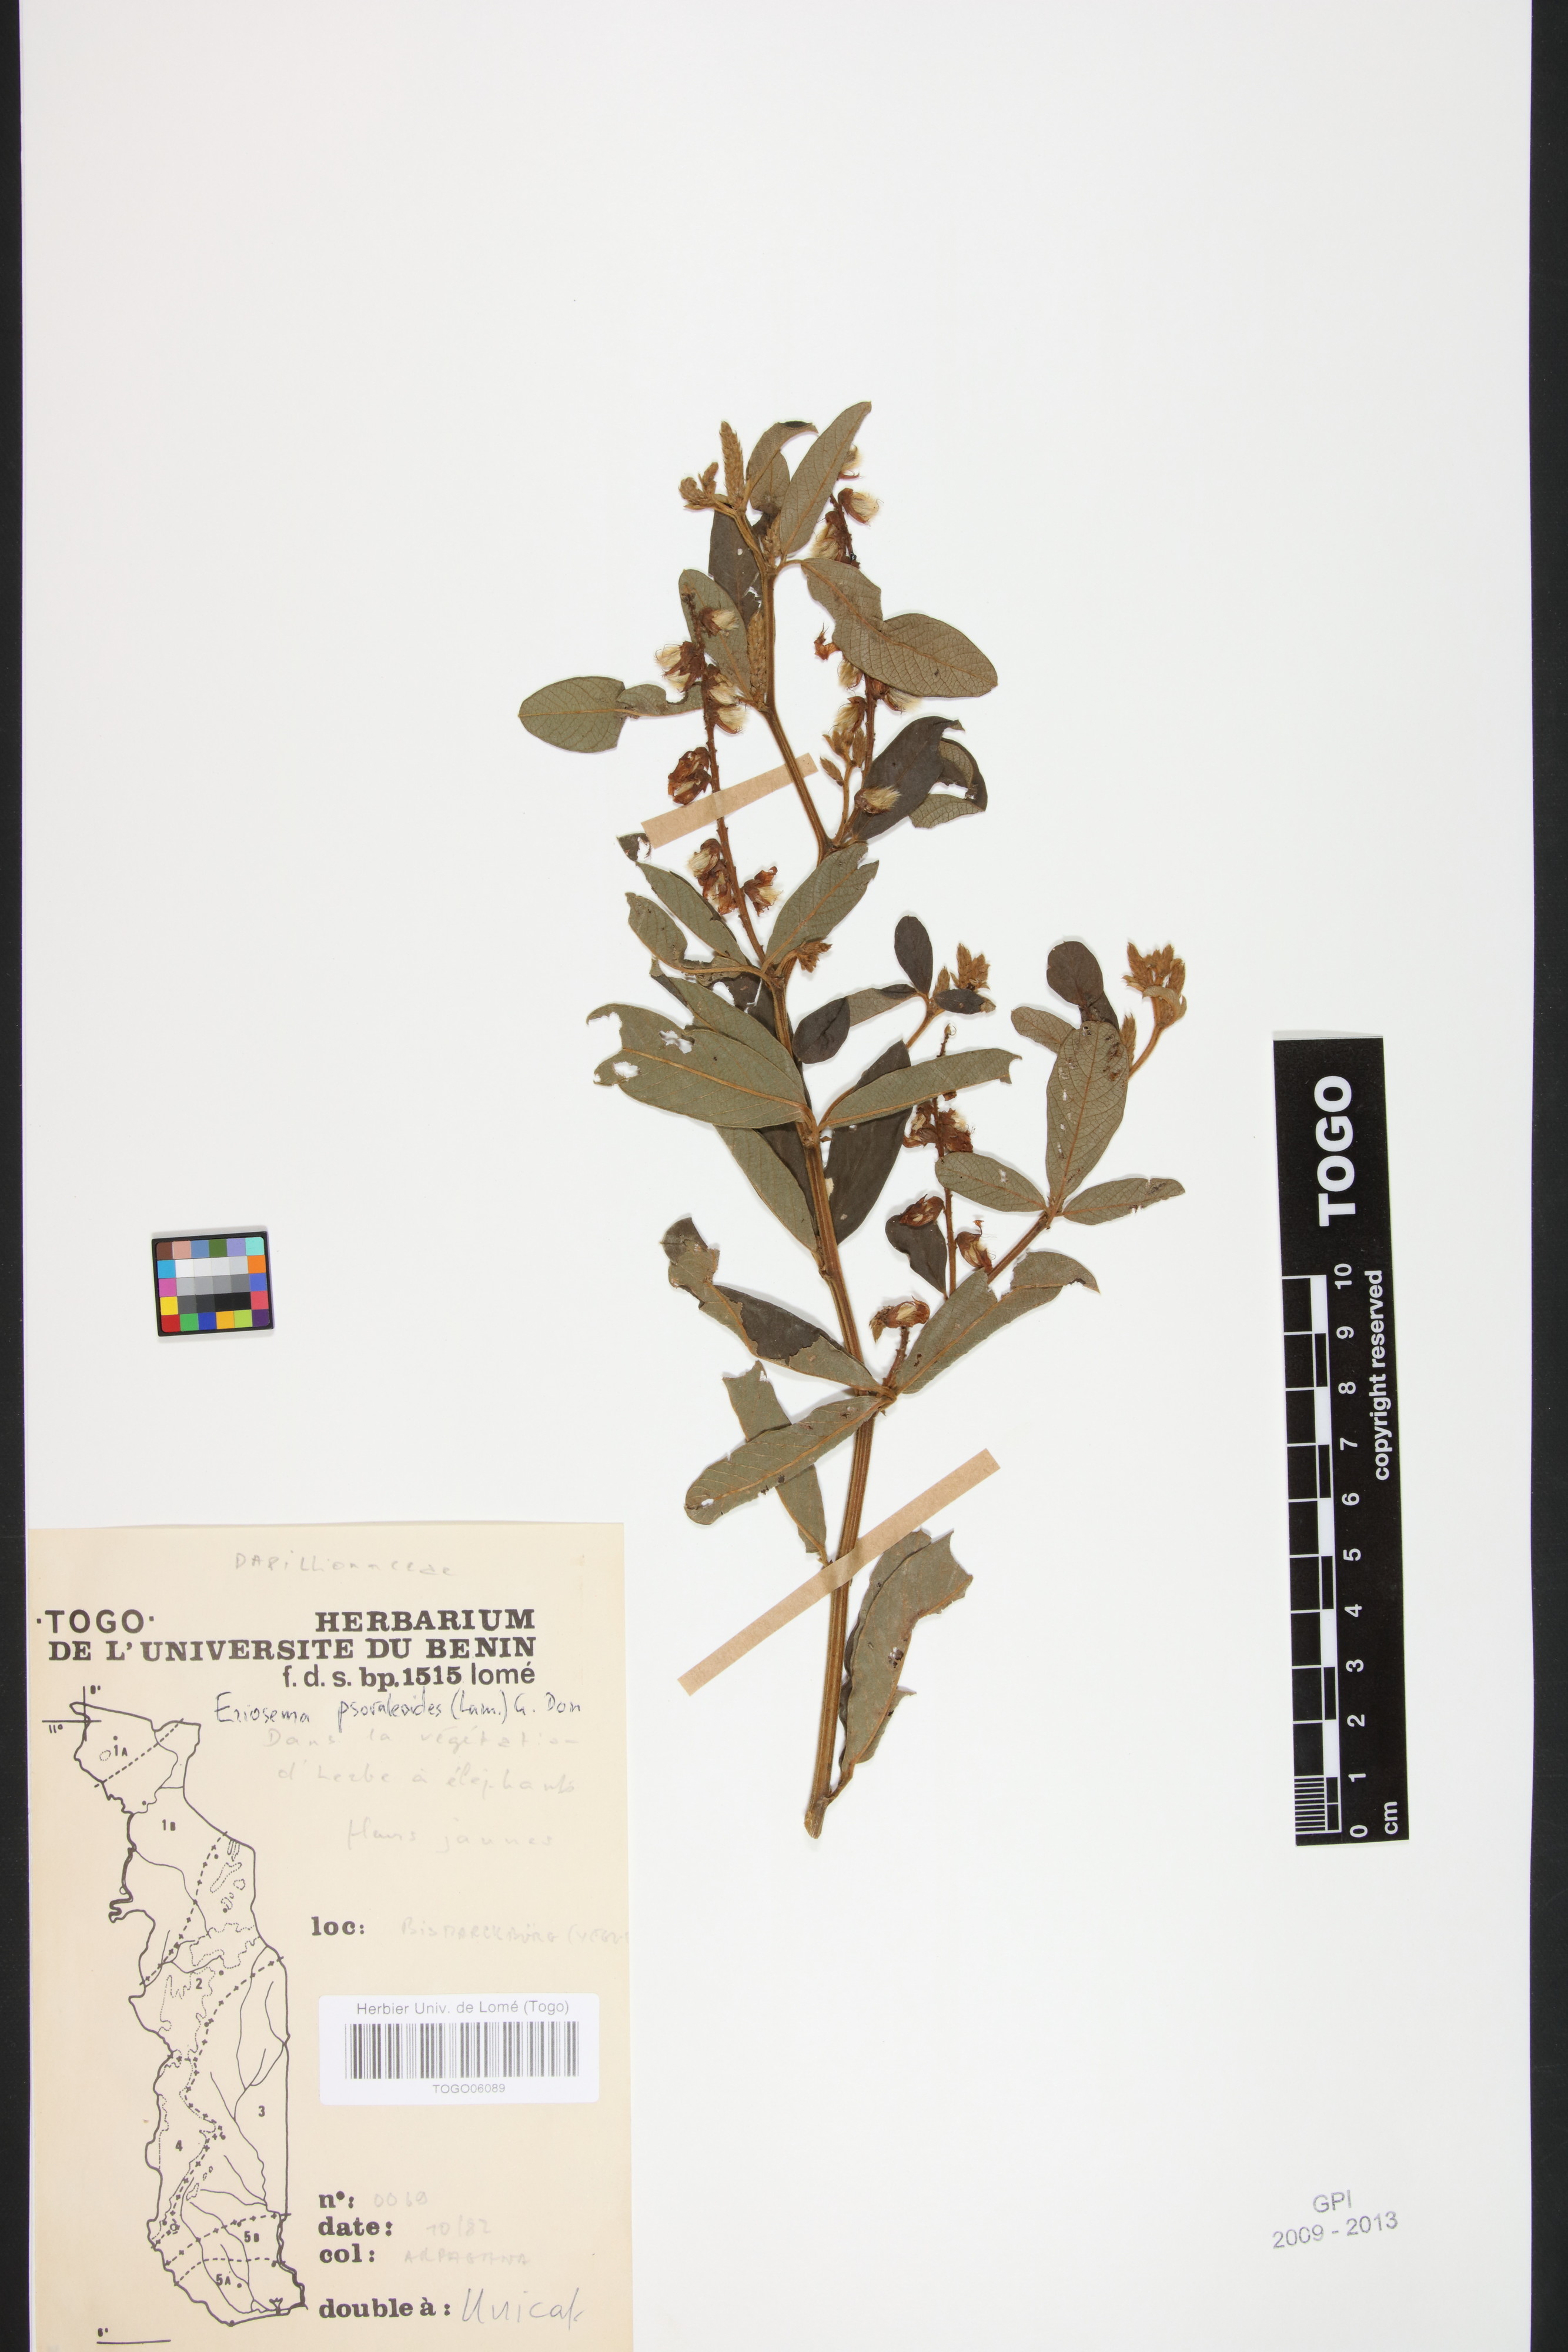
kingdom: Plantae
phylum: Tracheophyta
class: Magnoliopsida
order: Fabales
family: Fabaceae
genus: Eriosema
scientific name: Eriosema psoraleoides
